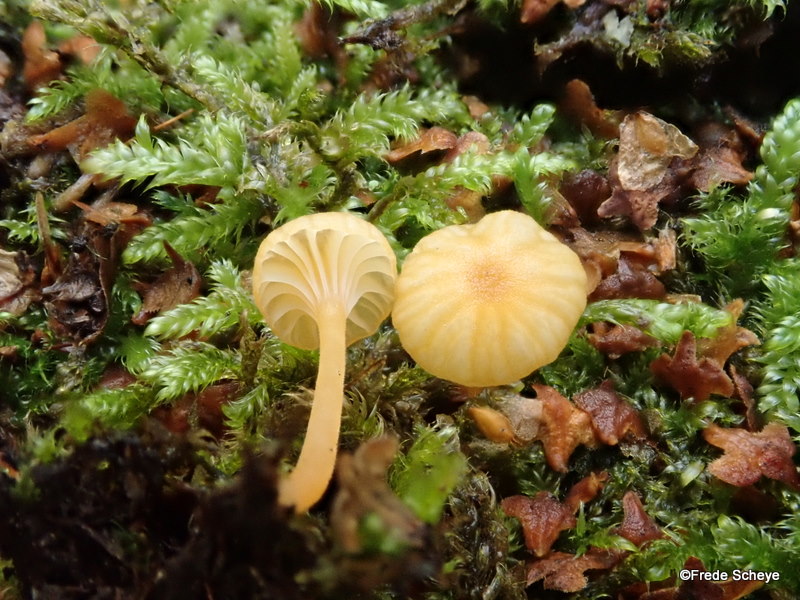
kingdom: Fungi
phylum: Basidiomycota
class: Agaricomycetes
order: Hymenochaetales
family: Rickenellaceae
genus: Rickenella
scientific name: Rickenella fibula
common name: orange mosnavlehat
